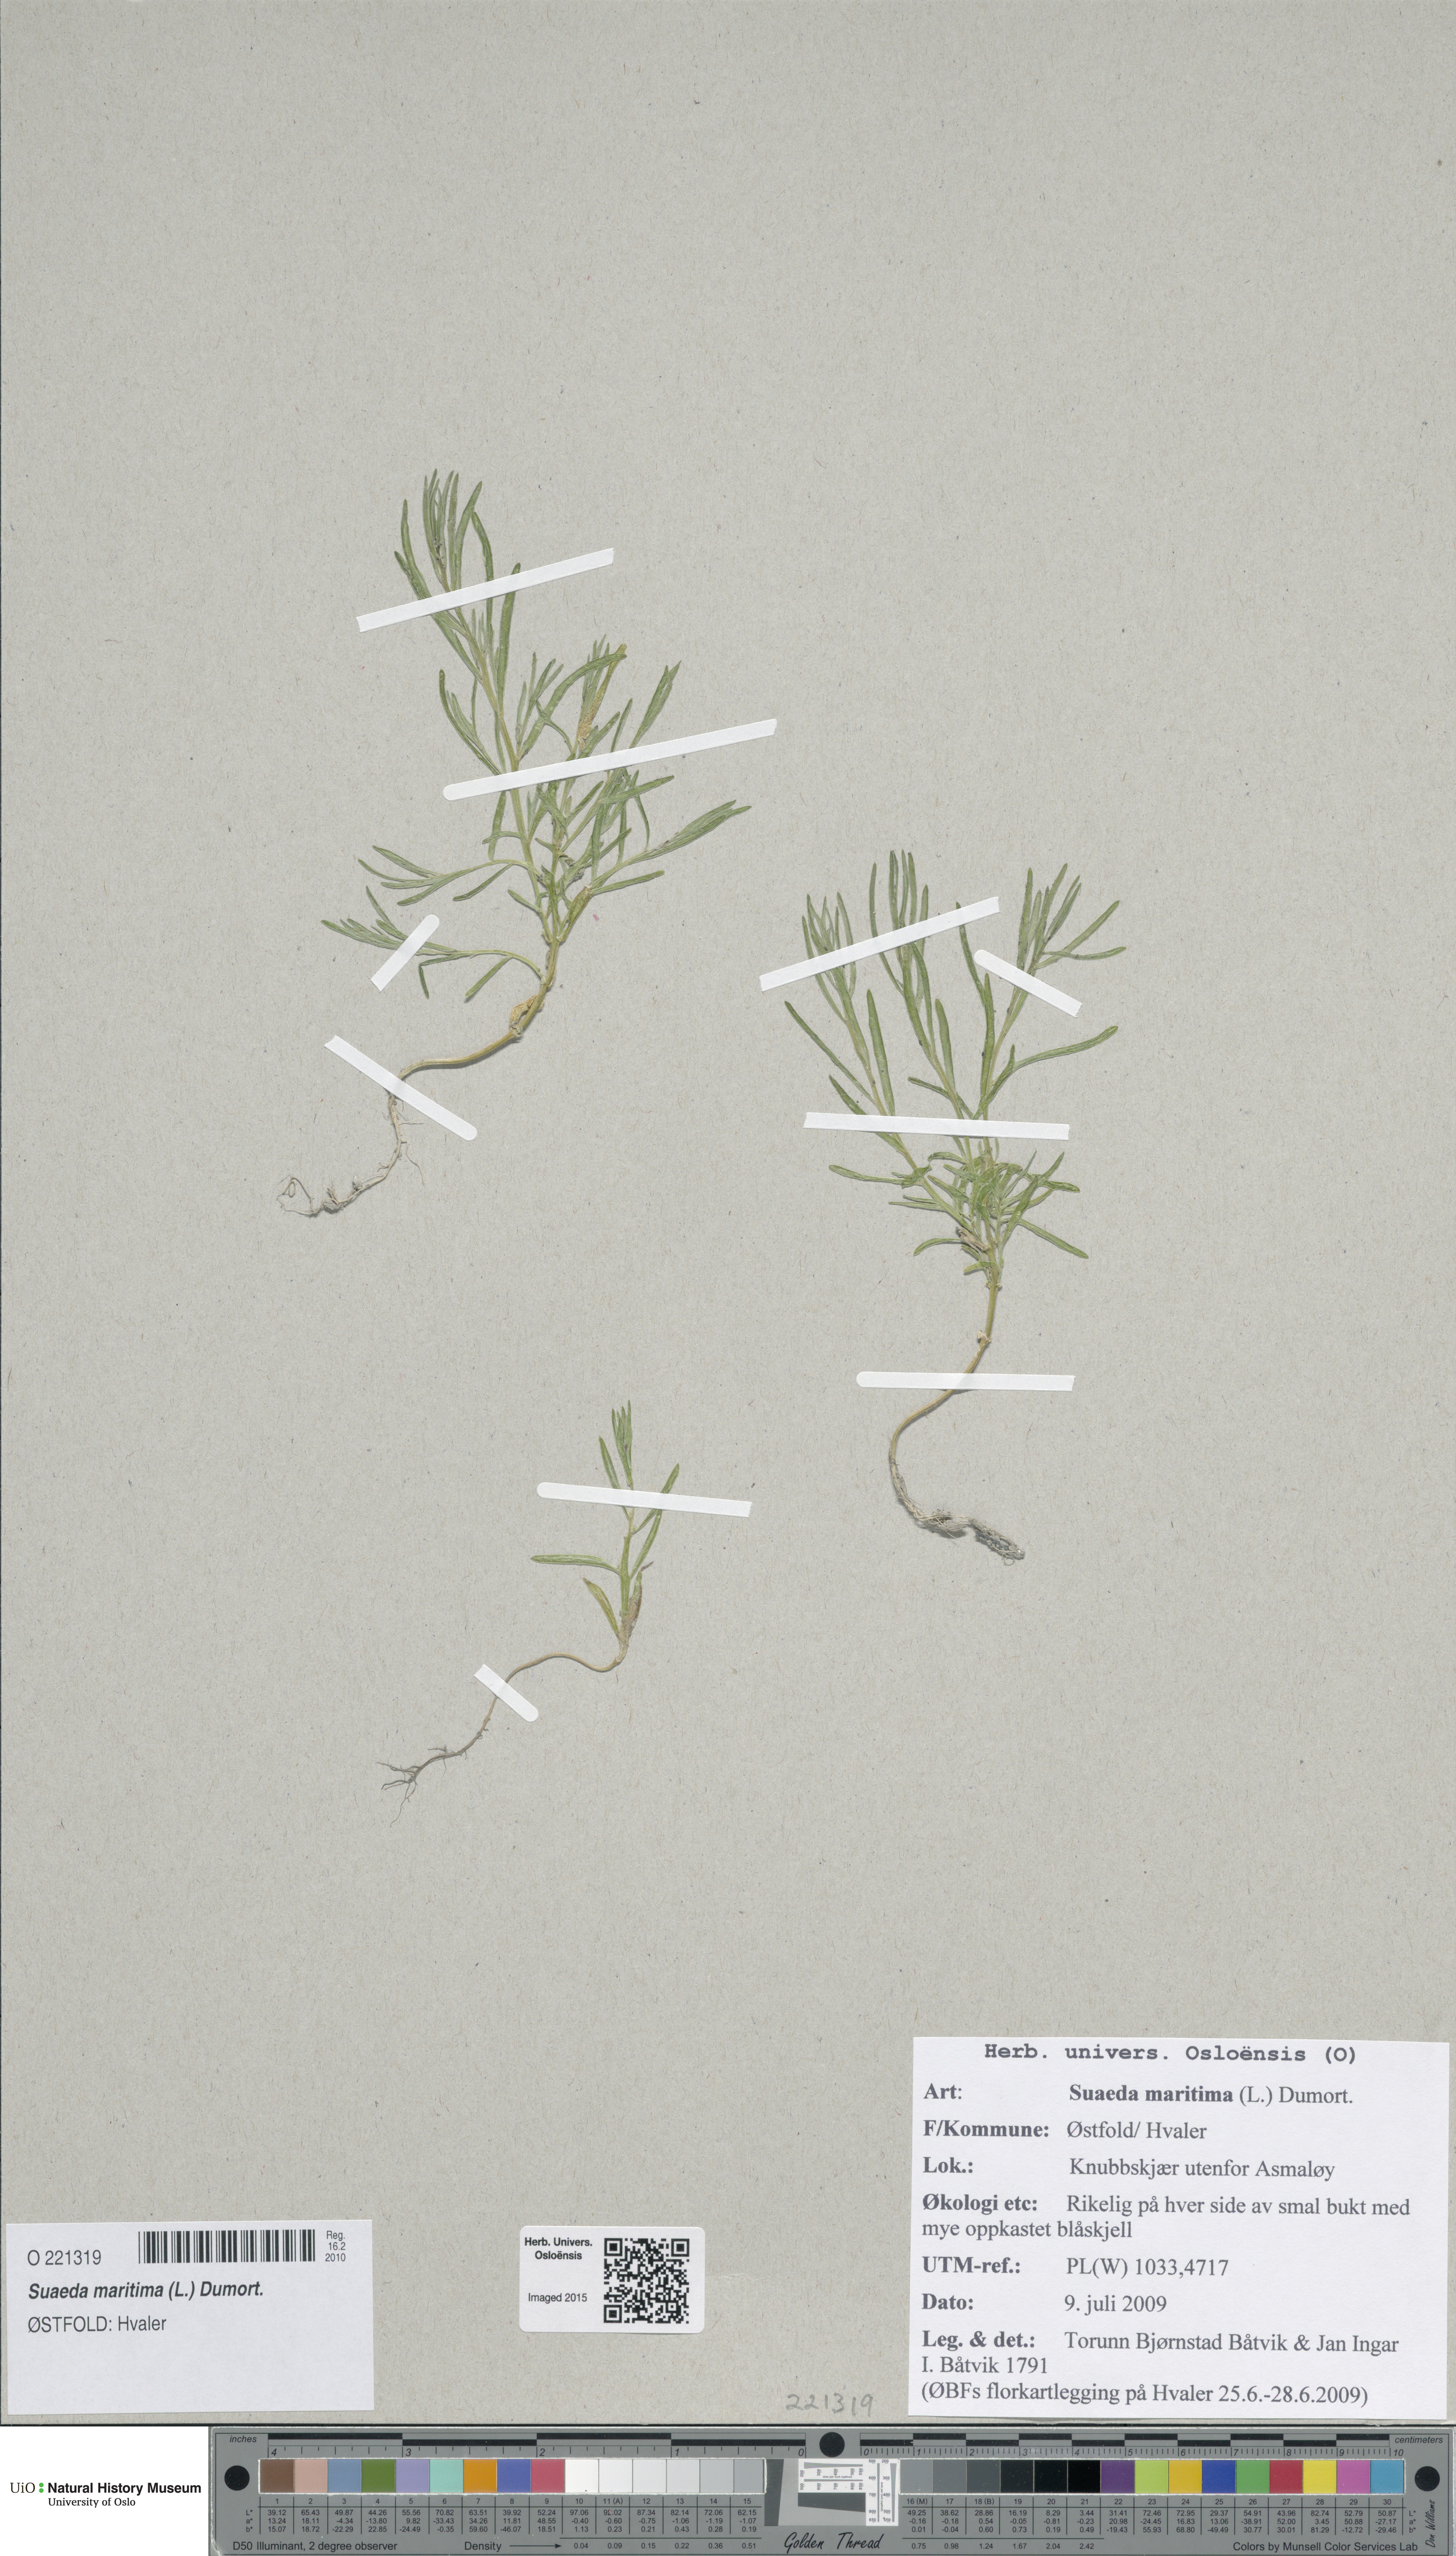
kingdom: Plantae
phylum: Tracheophyta
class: Magnoliopsida
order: Caryophyllales
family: Amaranthaceae
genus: Suaeda
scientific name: Suaeda maritima
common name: Annual sea-blite
